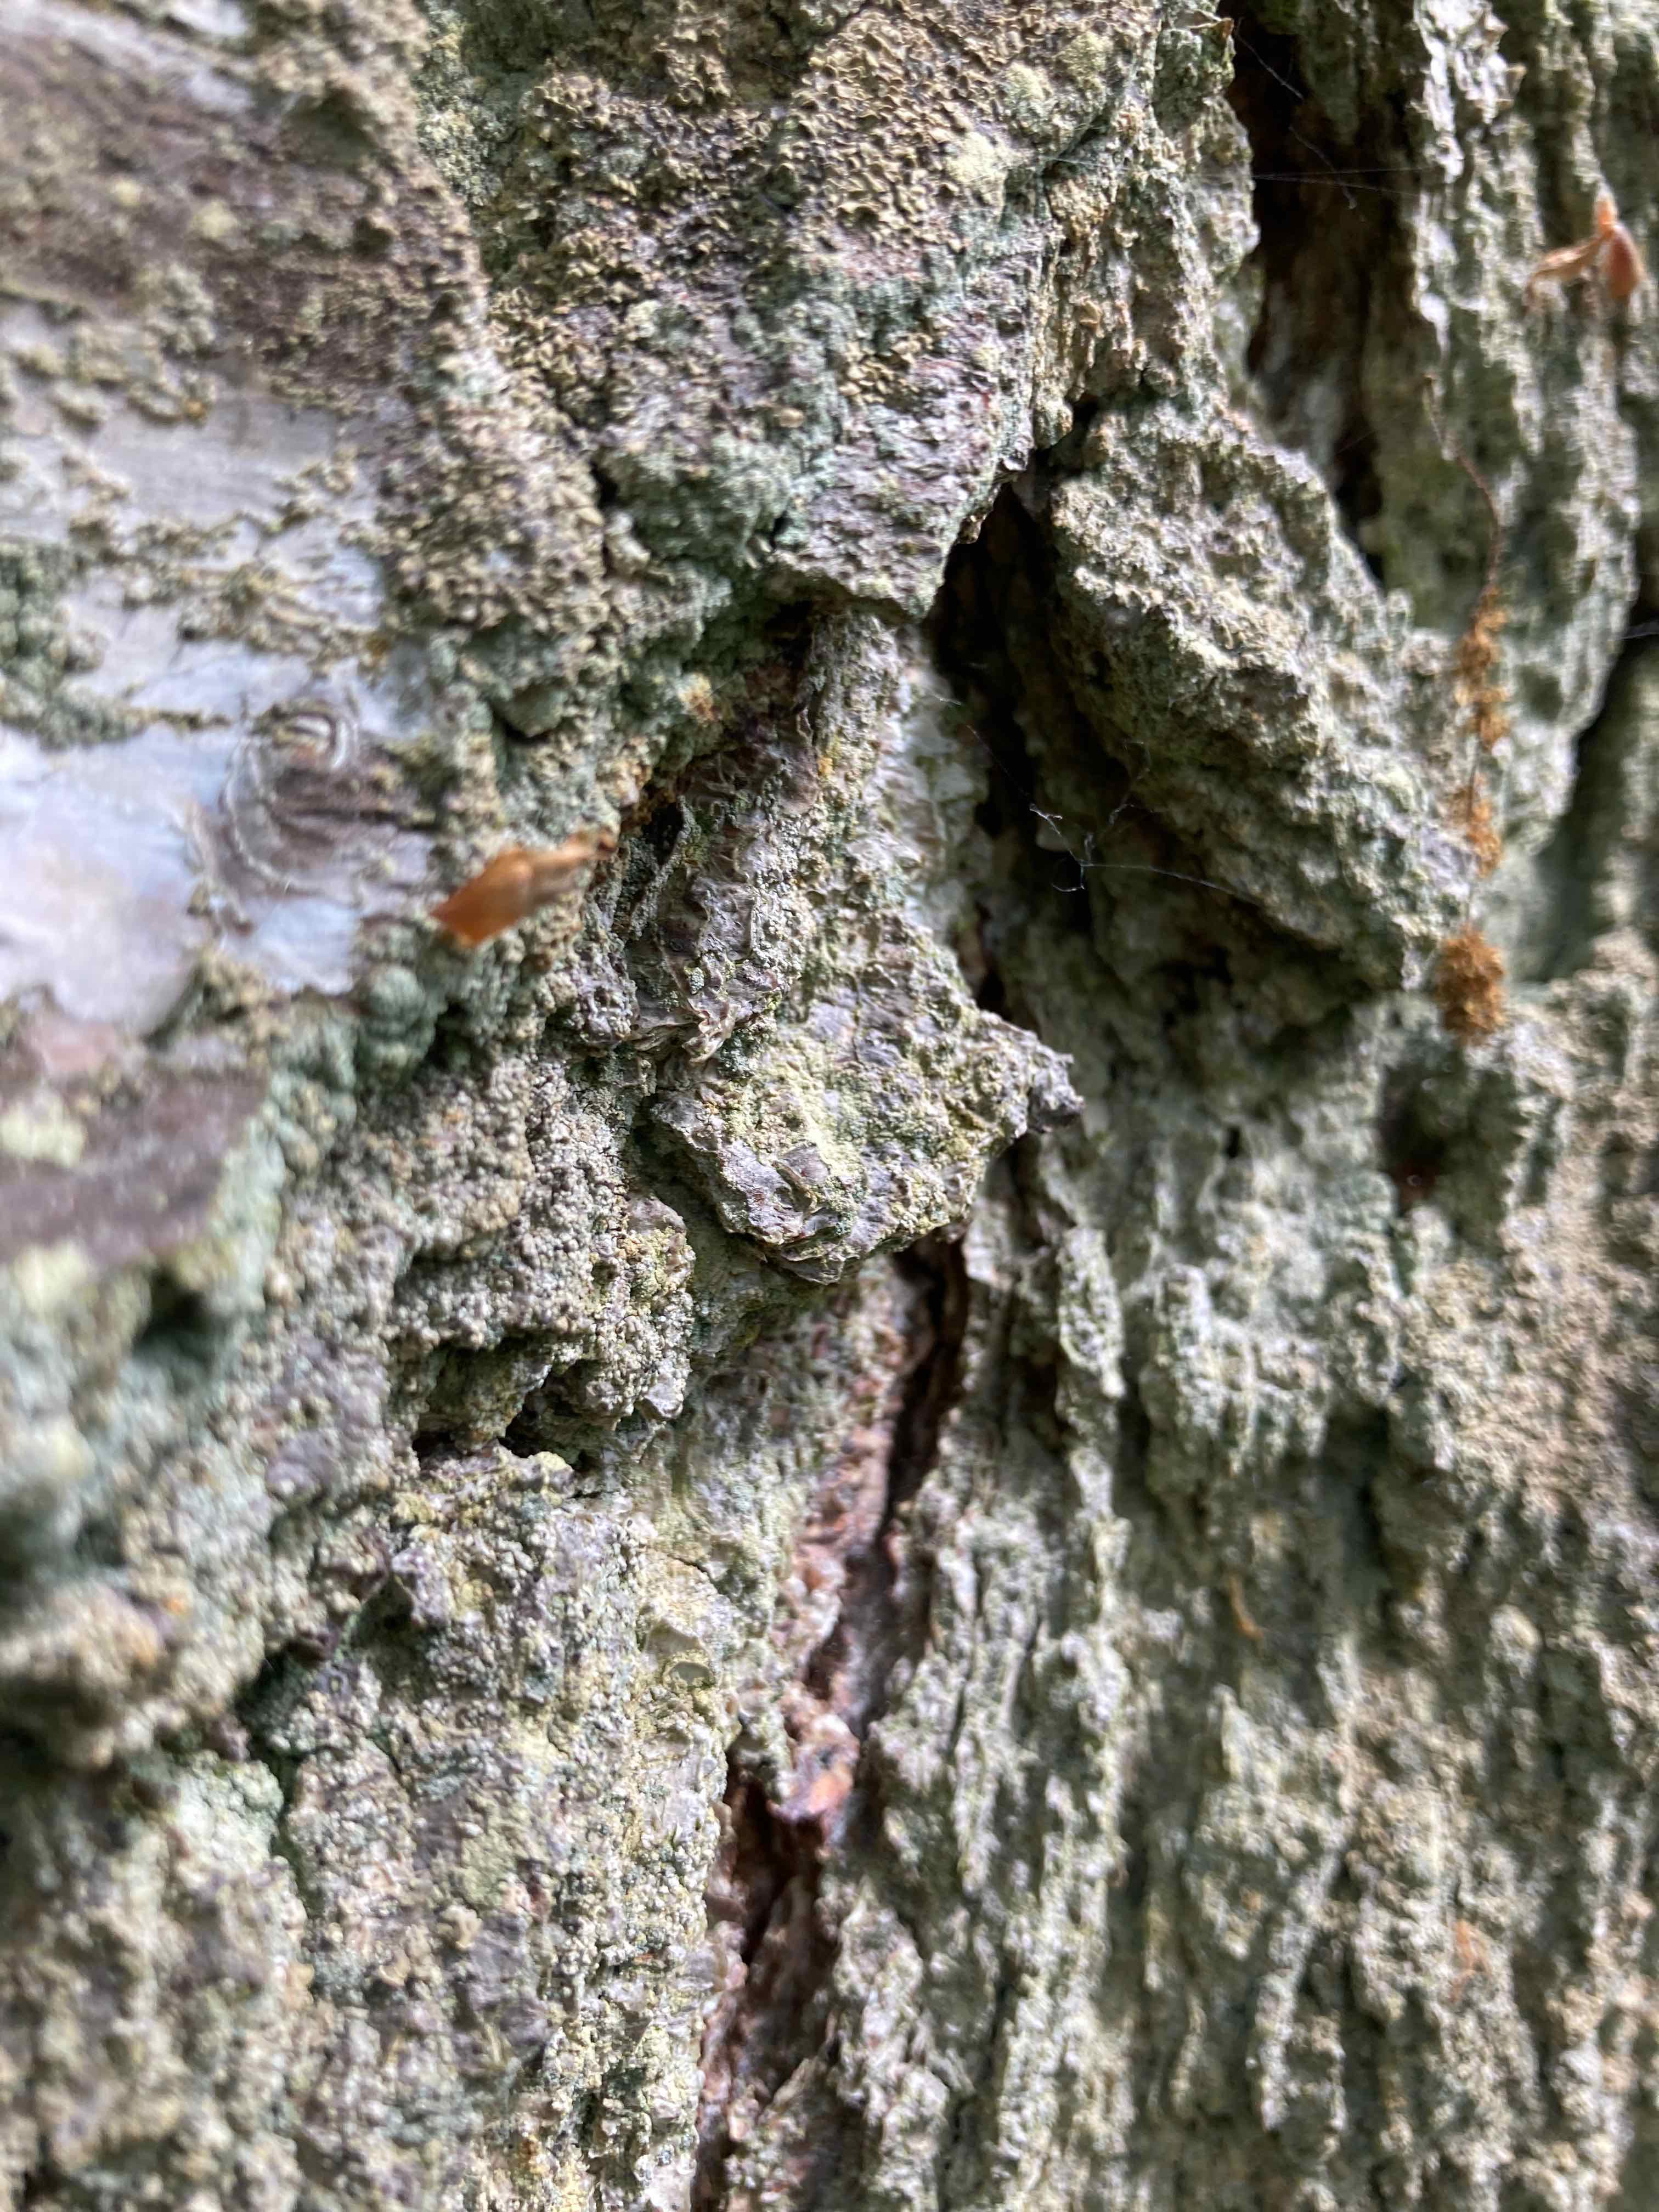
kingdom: Fungi
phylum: Ascomycota
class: Coniocybomycetes
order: Coniocybales
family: Coniocybaceae
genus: Chaenotheca
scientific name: Chaenotheca ferruginea
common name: rustbrun knappenålslav
